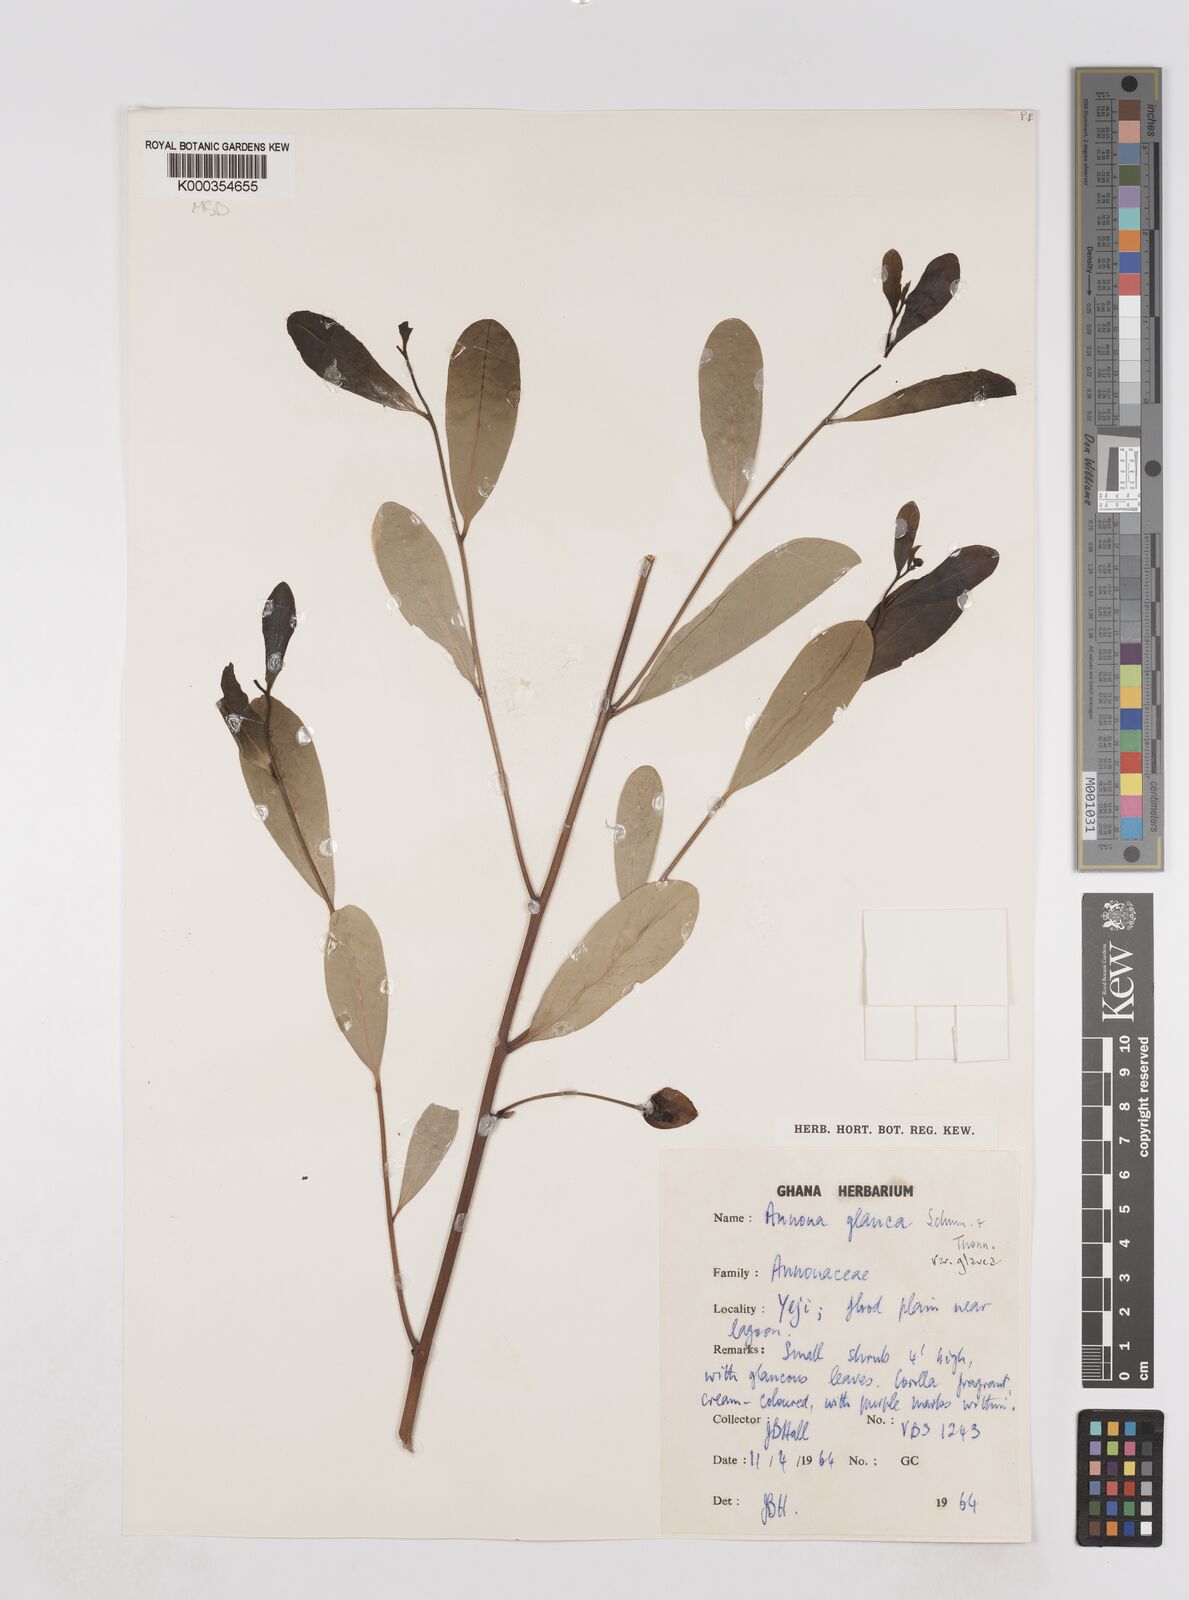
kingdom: Plantae
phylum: Tracheophyta
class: Magnoliopsida
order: Magnoliales
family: Annonaceae
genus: Annona
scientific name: Annona glauca
